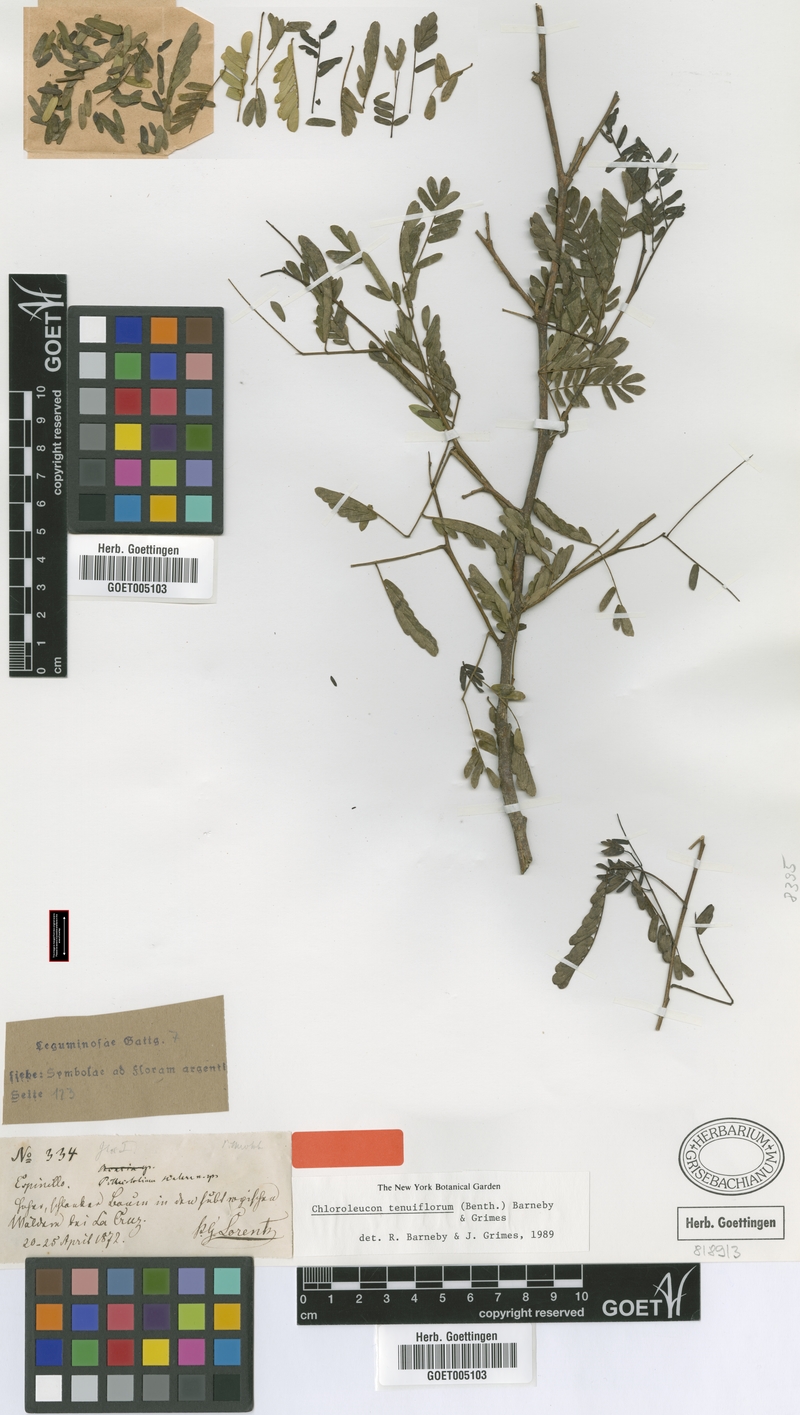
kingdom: Plantae
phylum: Tracheophyta
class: Magnoliopsida
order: Fabales
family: Fabaceae
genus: Chloroleucon
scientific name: Chloroleucon tenuiflorum
